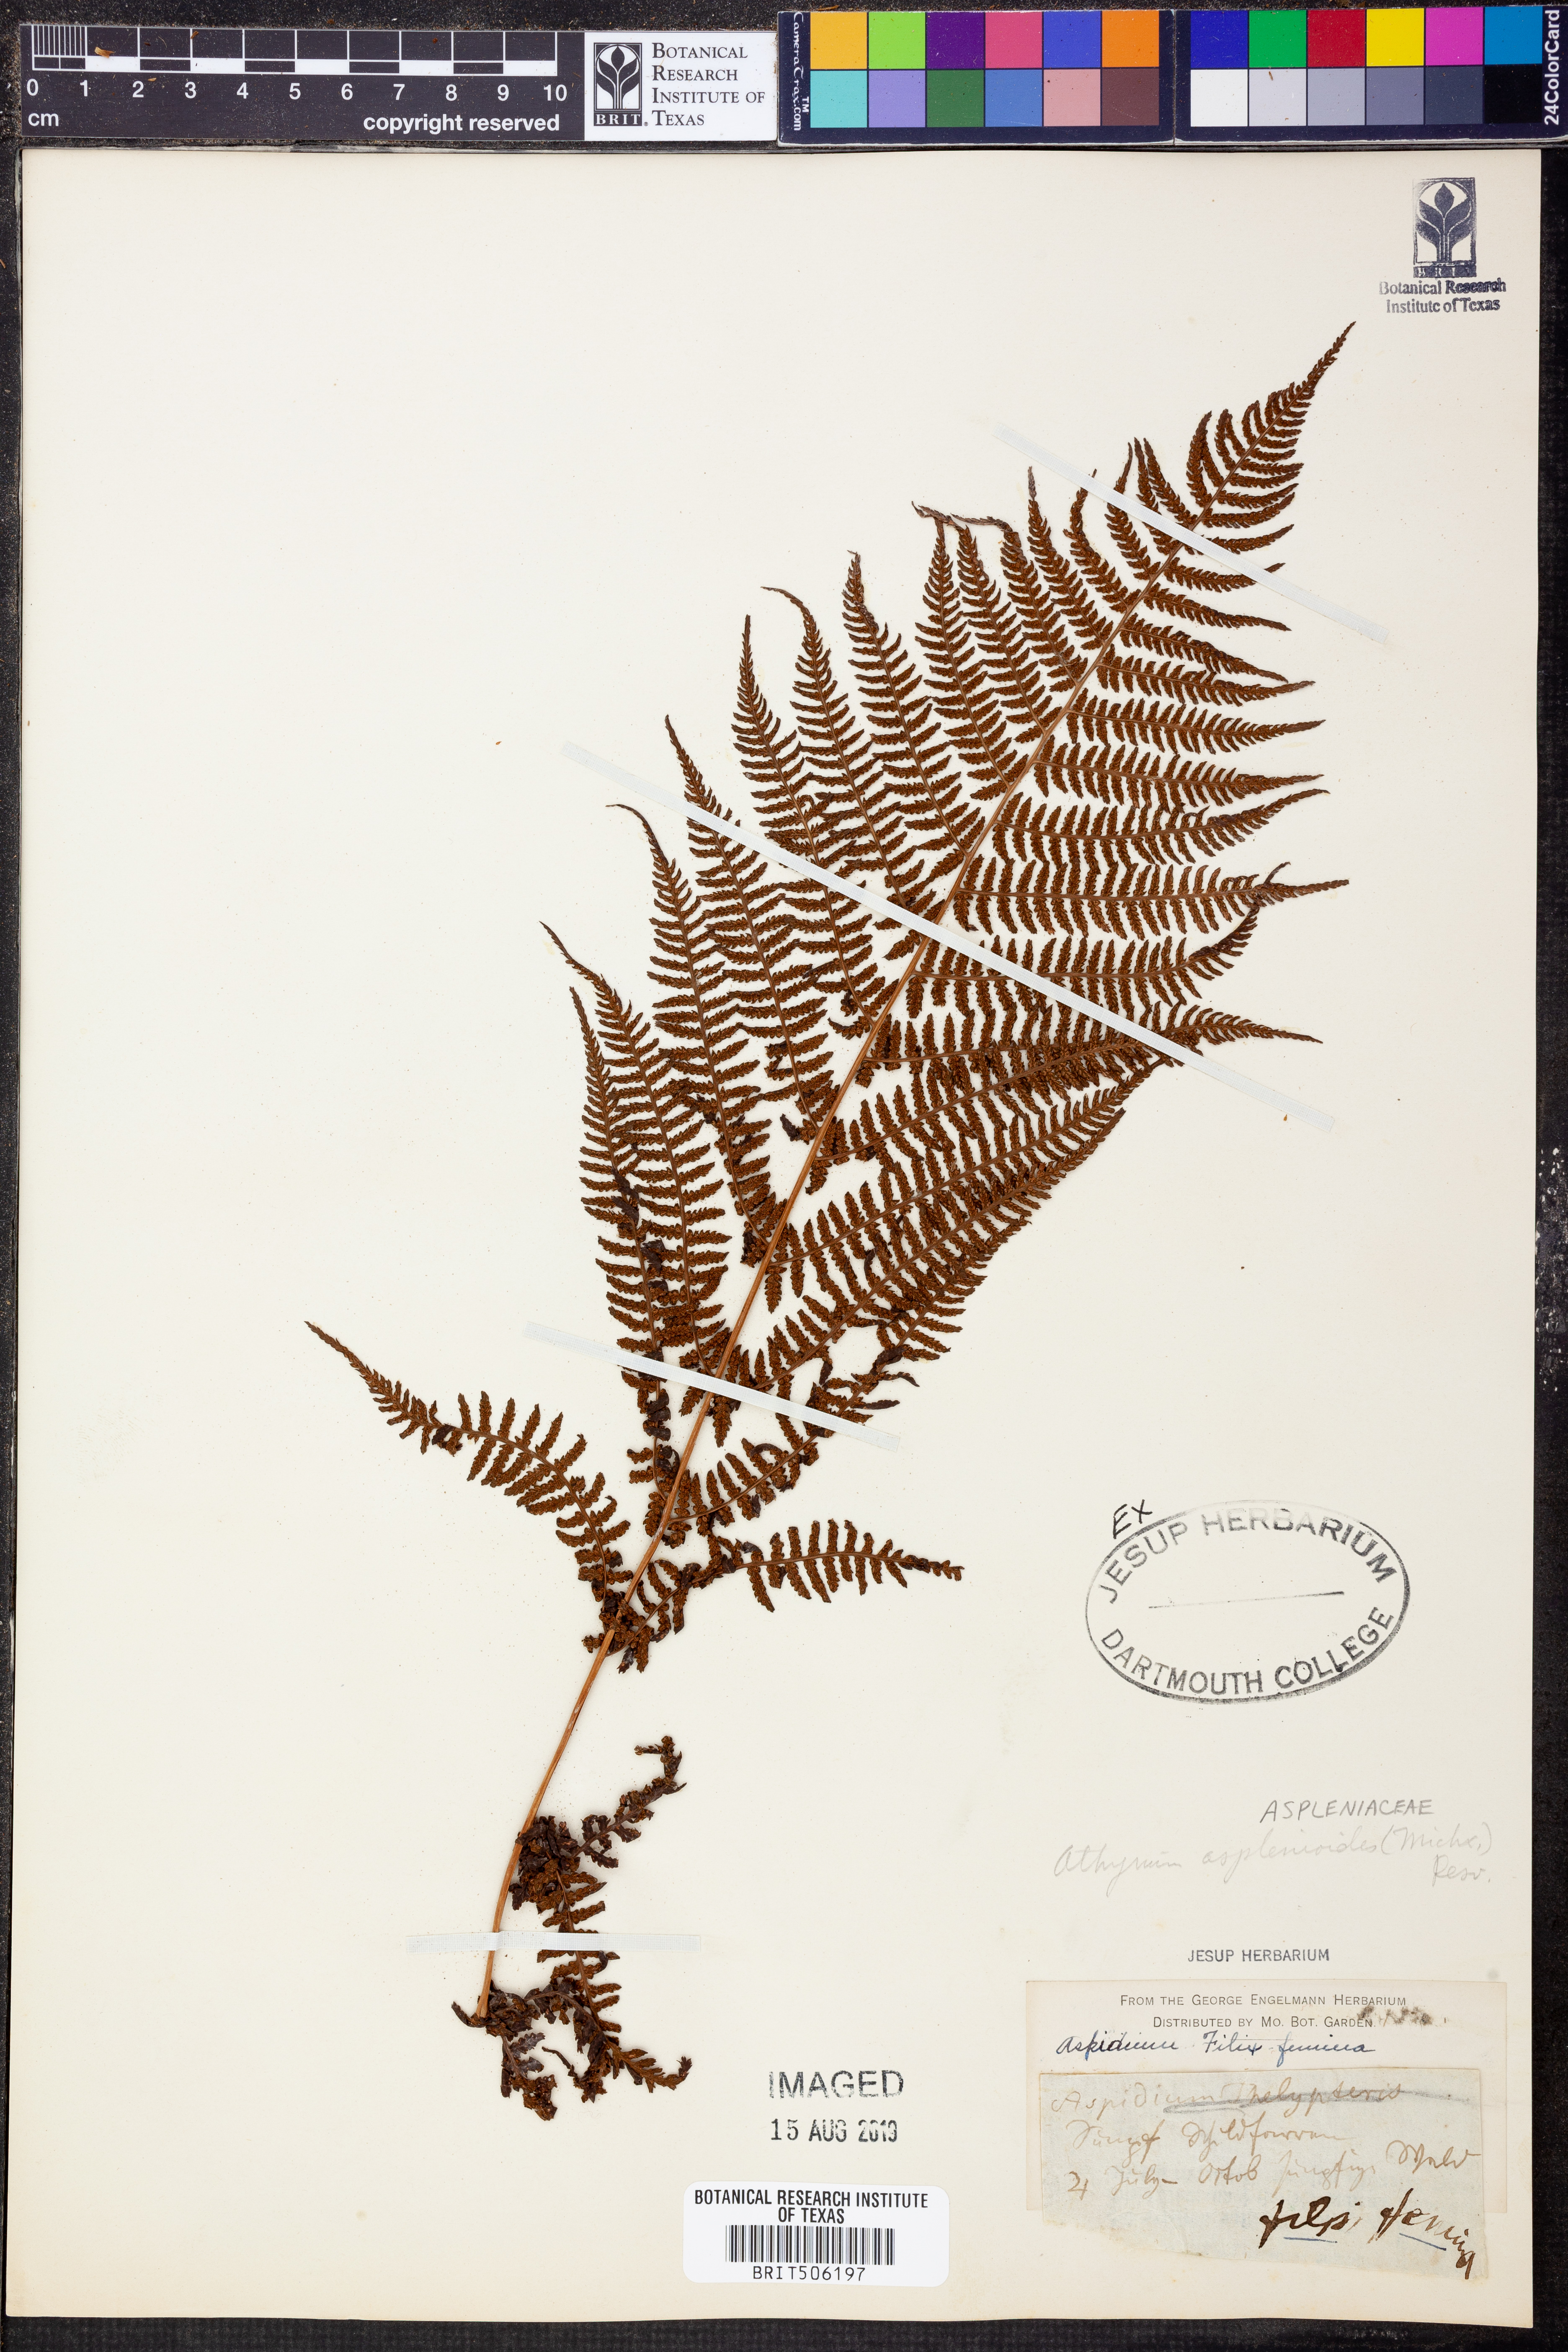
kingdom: Plantae
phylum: Tracheophyta
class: Polypodiopsida
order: Polypodiales
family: Athyriaceae
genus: Athyrium
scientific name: Athyrium asplenioides
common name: Southern lady fern
